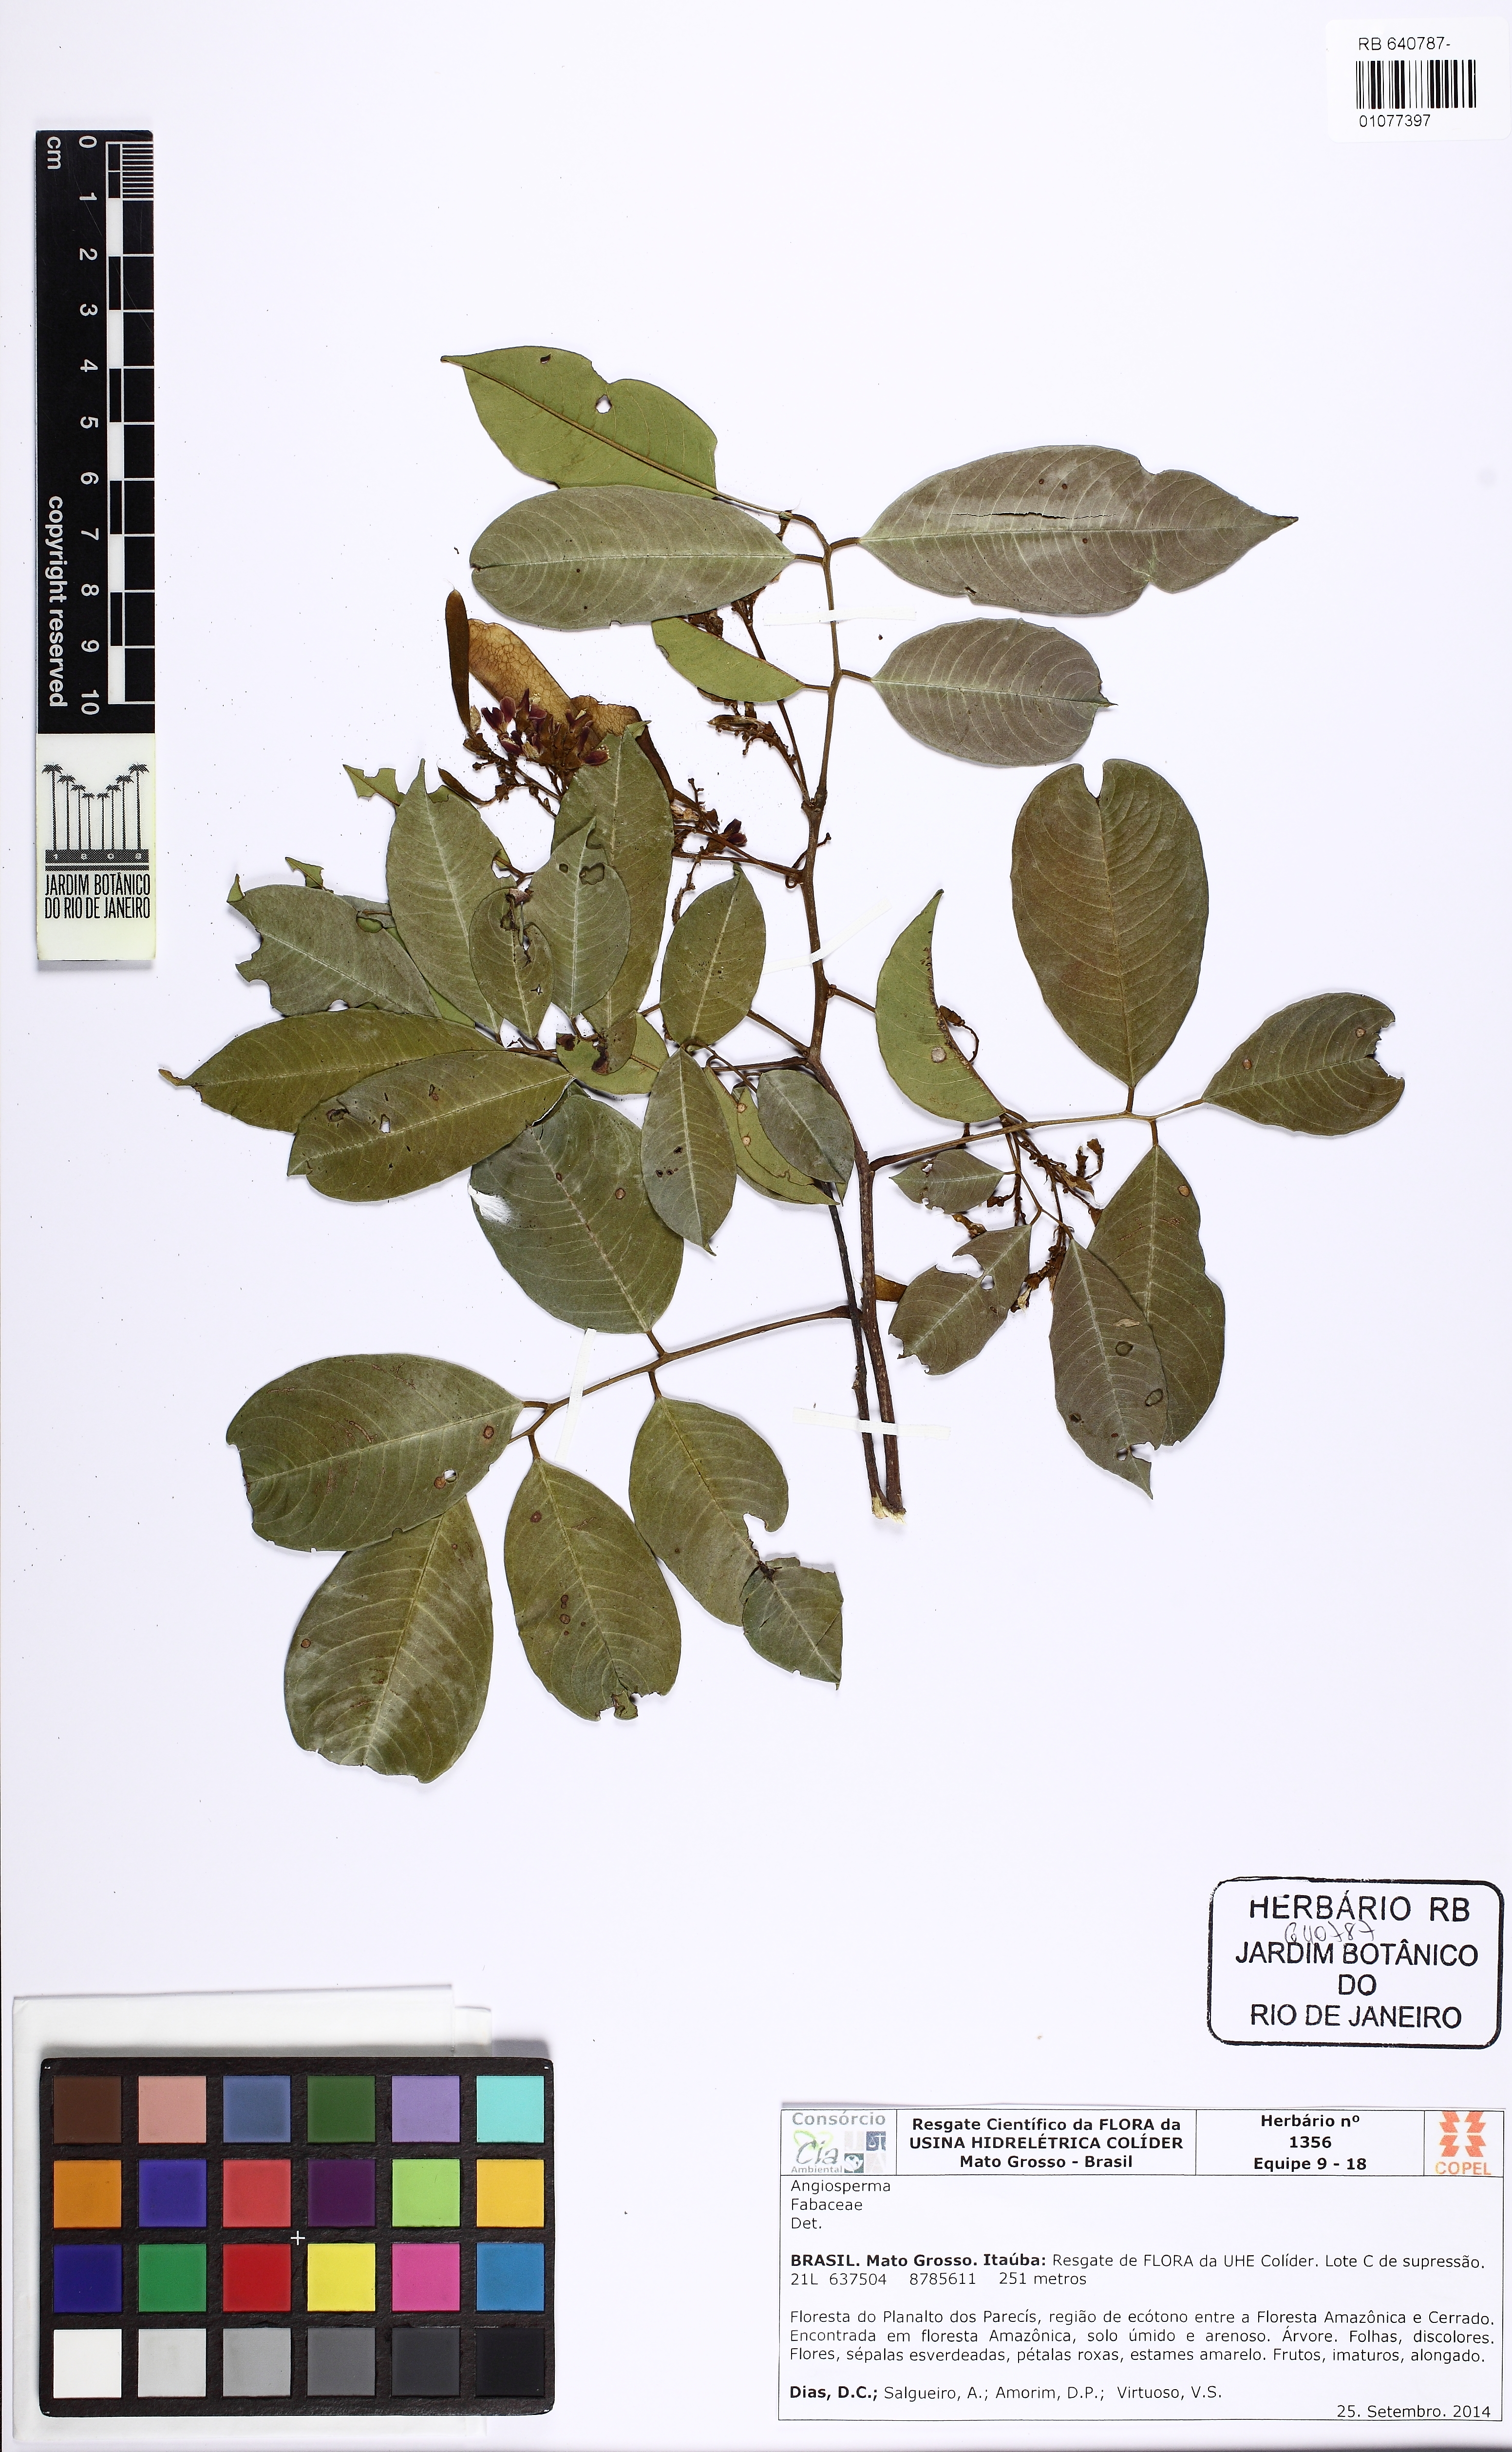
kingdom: Plantae
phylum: Tracheophyta
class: Magnoliopsida
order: Fabales
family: Fabaceae
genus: Dalbergia
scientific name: Dalbergia
